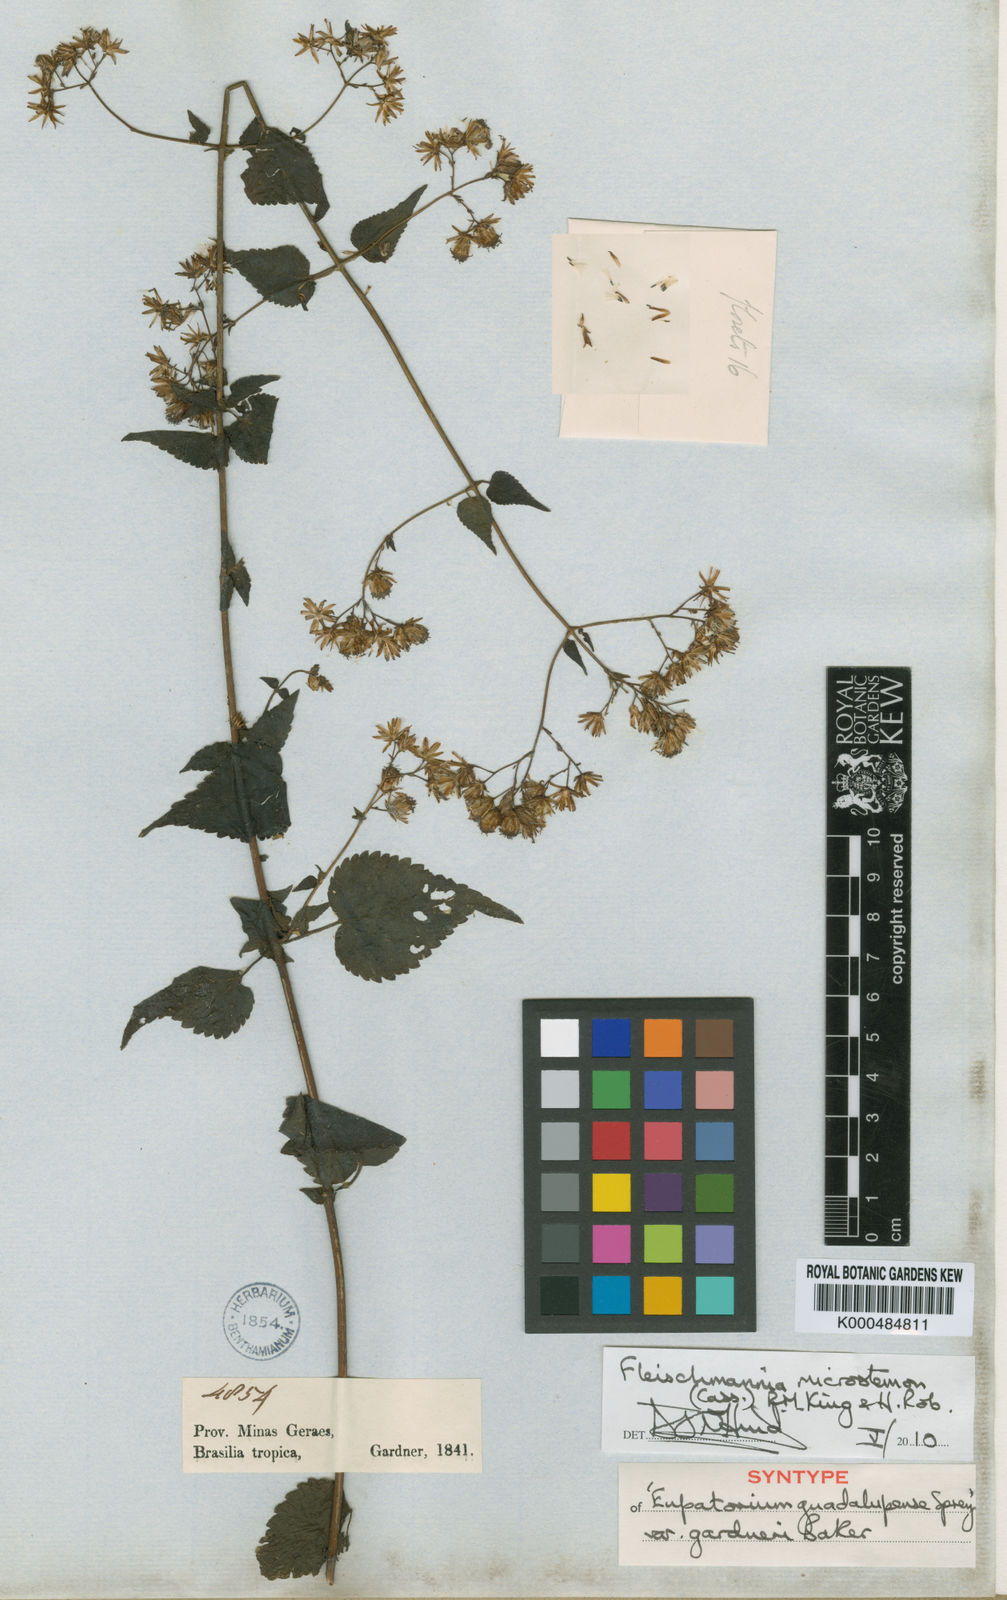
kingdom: Plantae
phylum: Tracheophyta
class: Magnoliopsida
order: Asterales
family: Asteraceae
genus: Fleischmannia
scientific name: Fleischmannia microstemon
